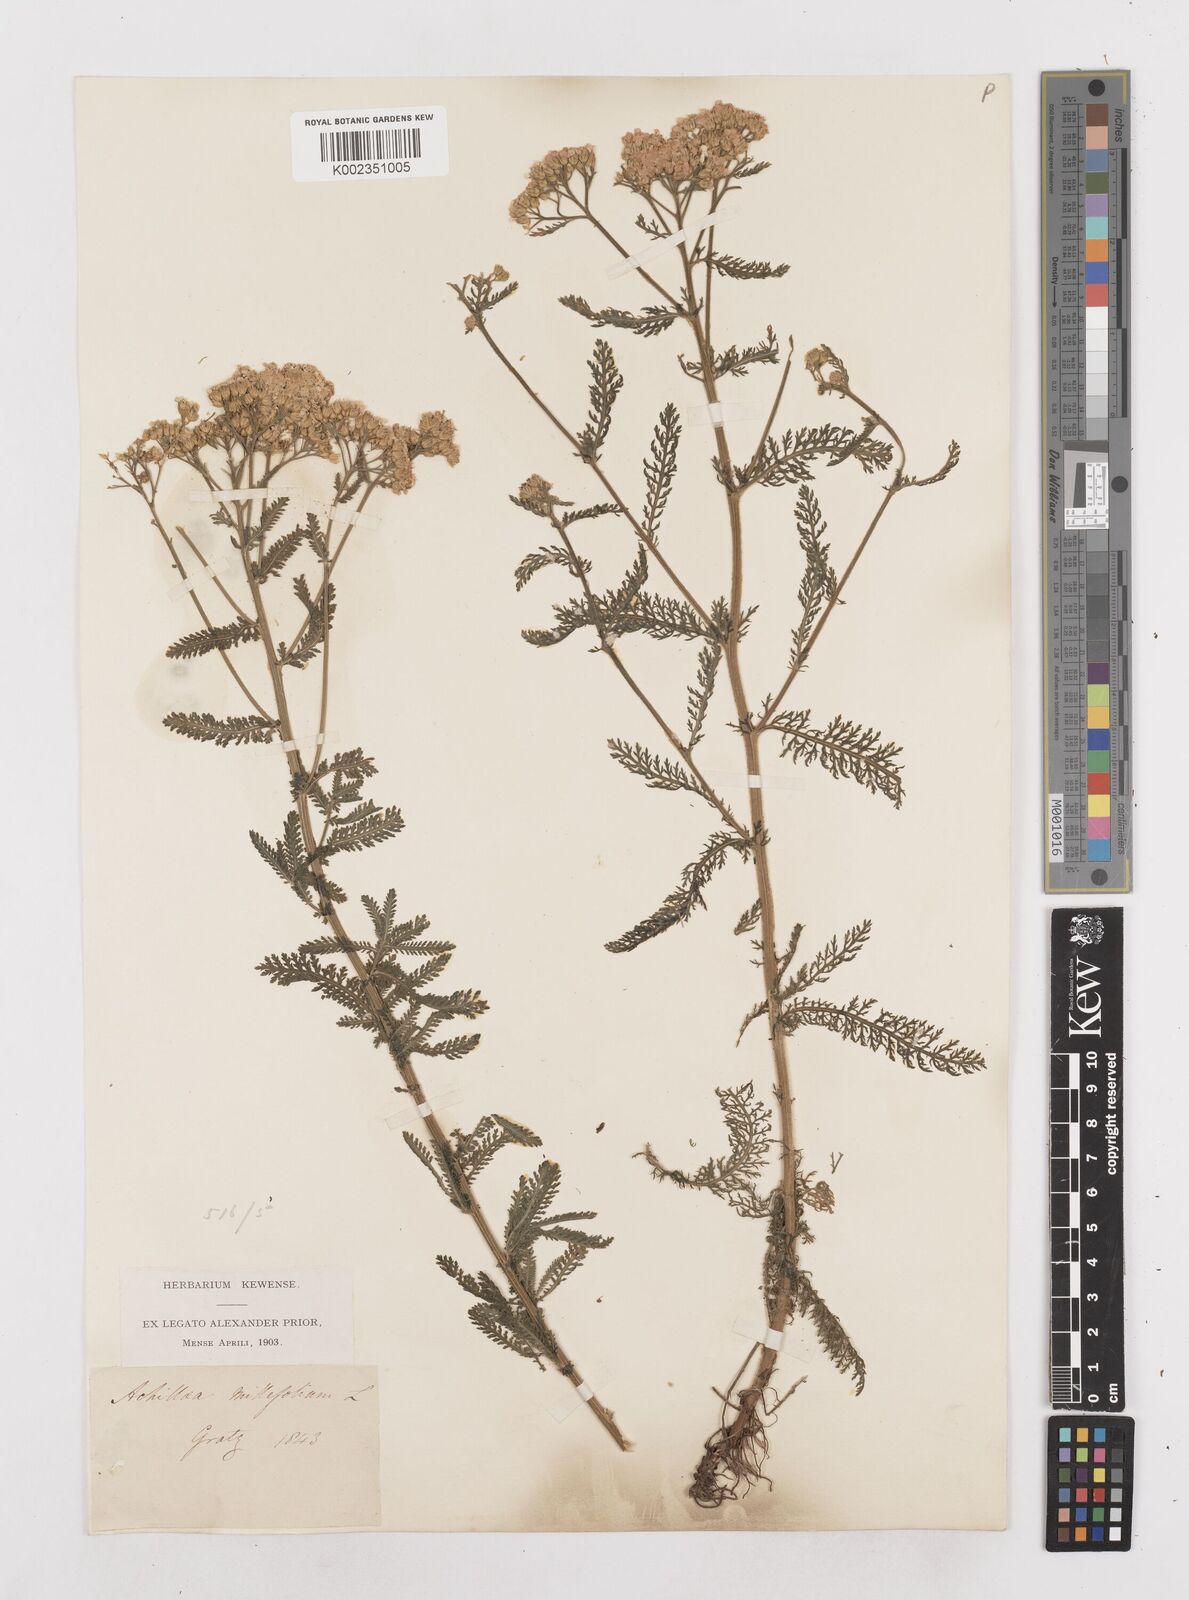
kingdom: Plantae
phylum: Tracheophyta
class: Magnoliopsida
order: Asterales
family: Asteraceae
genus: Achillea
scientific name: Achillea millefolium
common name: Yarrow
